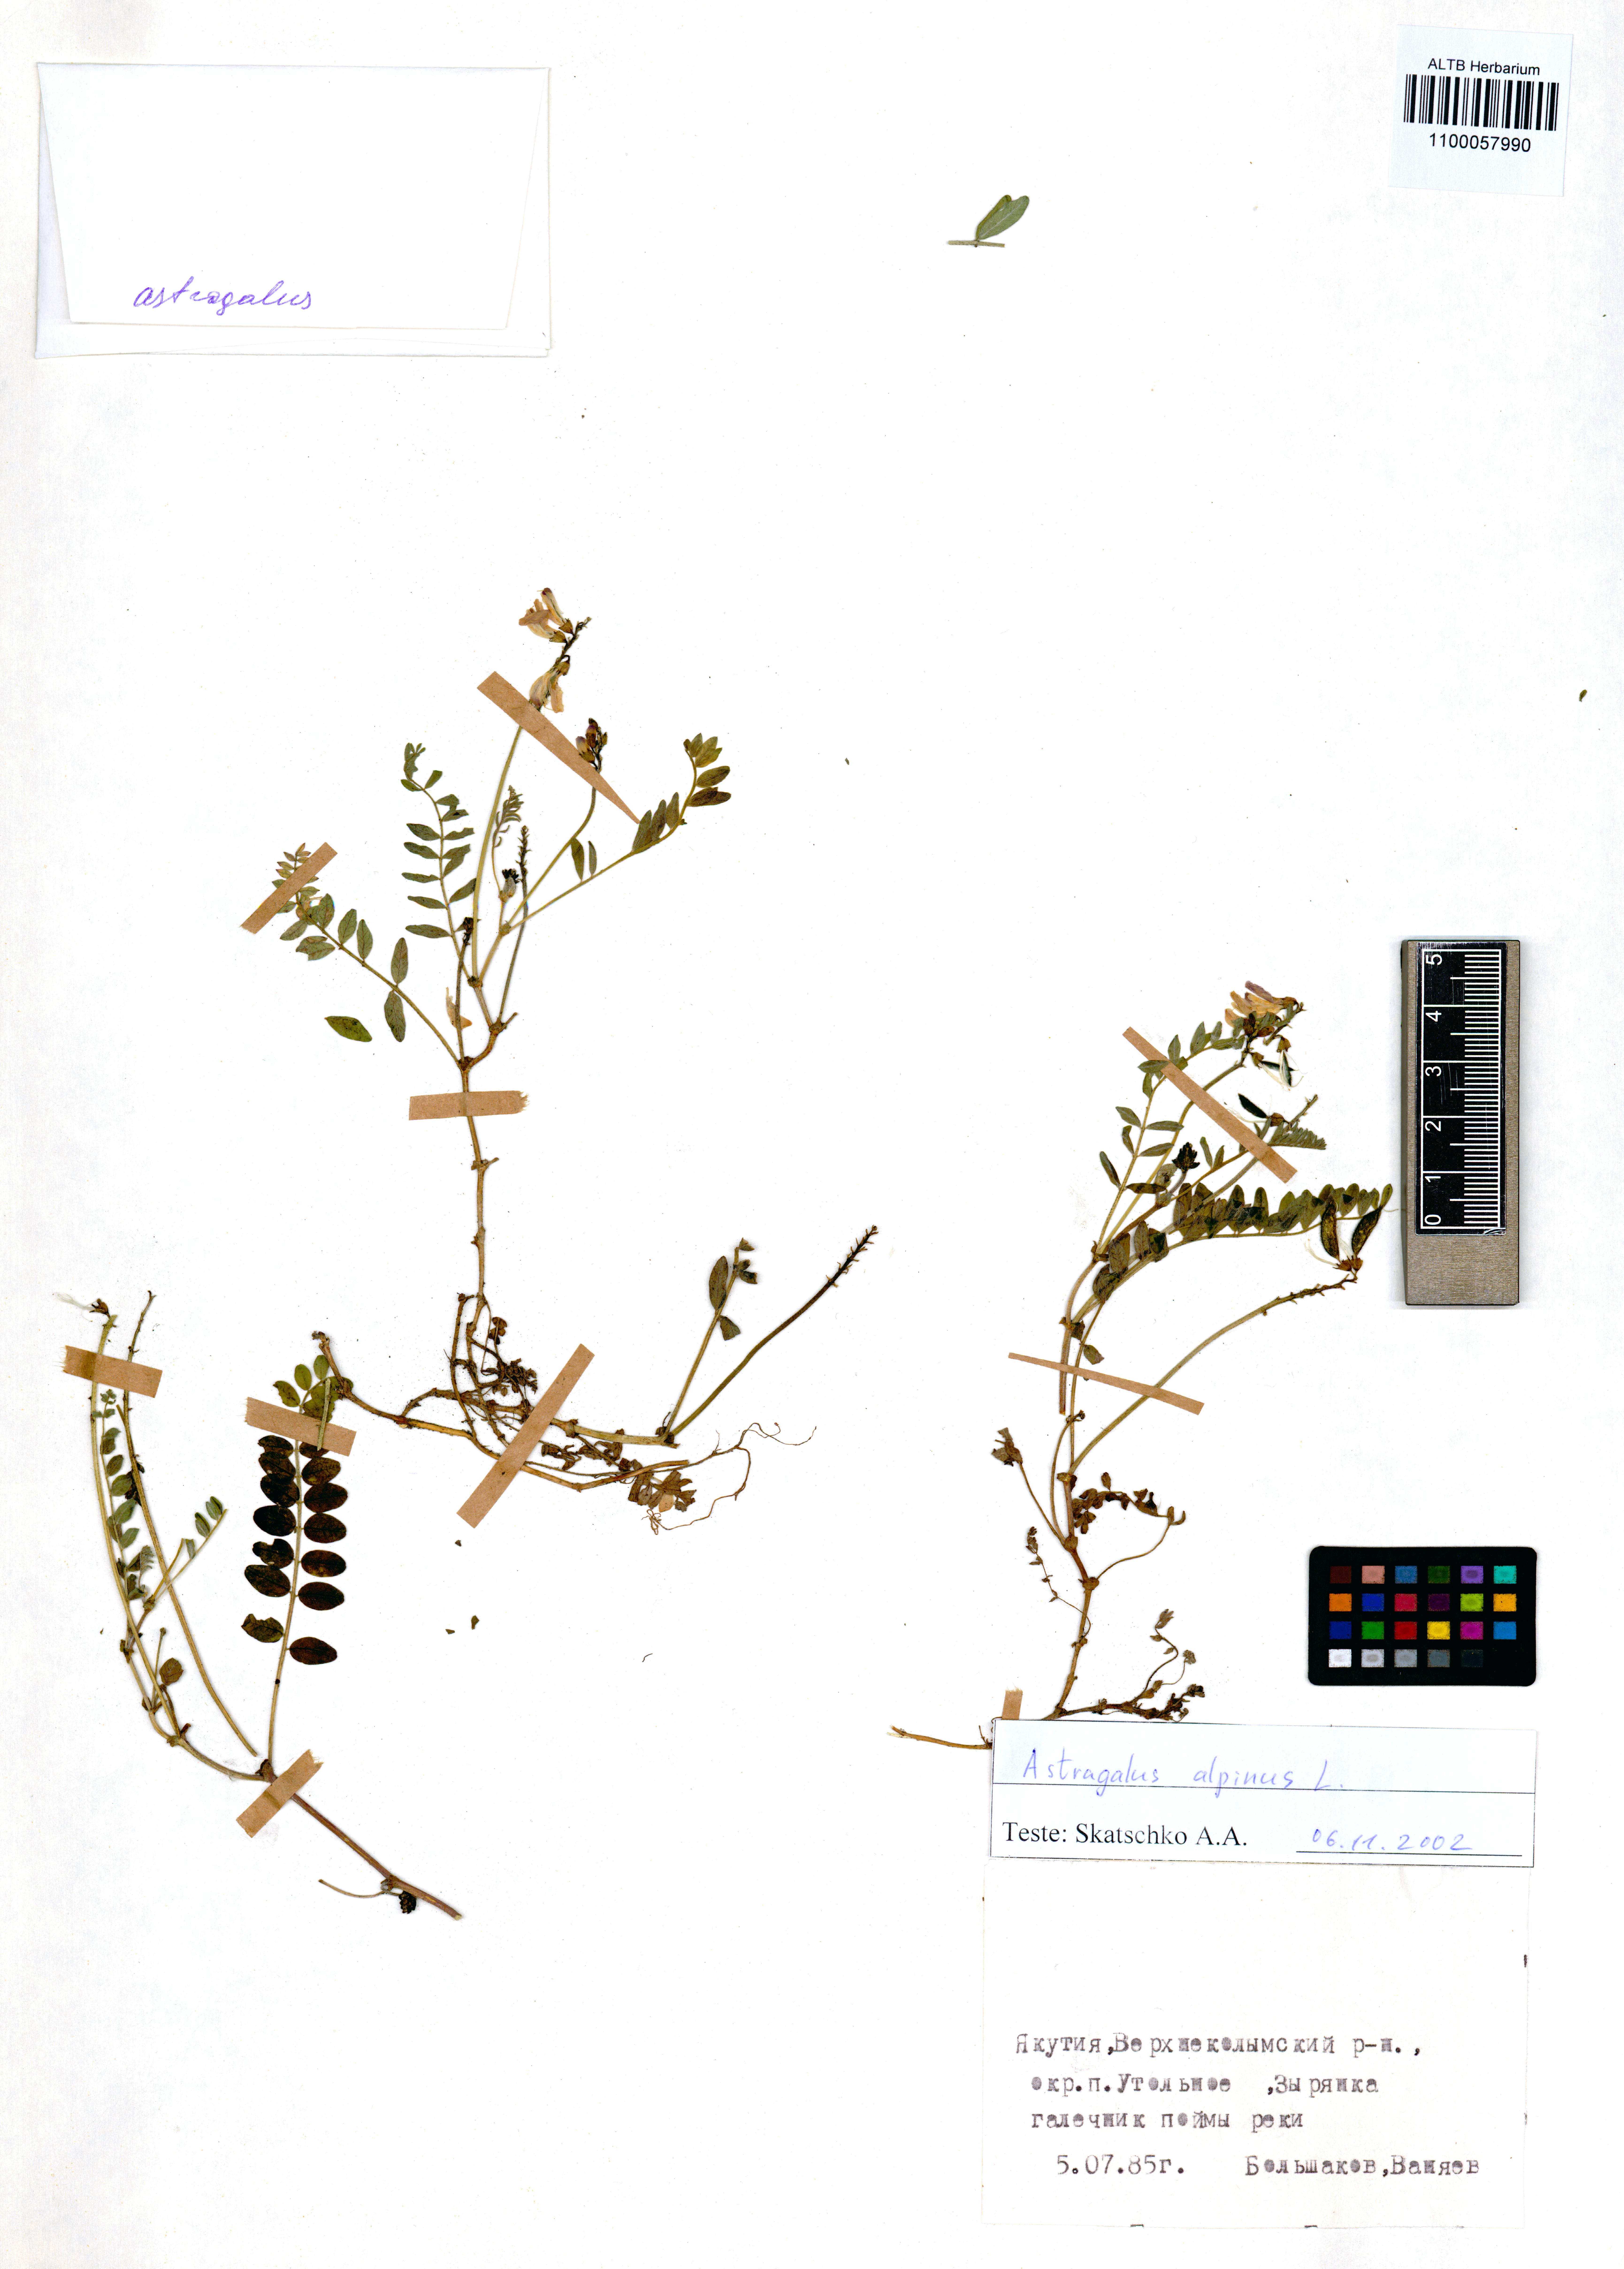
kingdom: Plantae
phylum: Tracheophyta
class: Magnoliopsida
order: Fabales
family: Fabaceae
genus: Astragalus
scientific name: Astragalus alpinus
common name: Alpine milk-vetch
